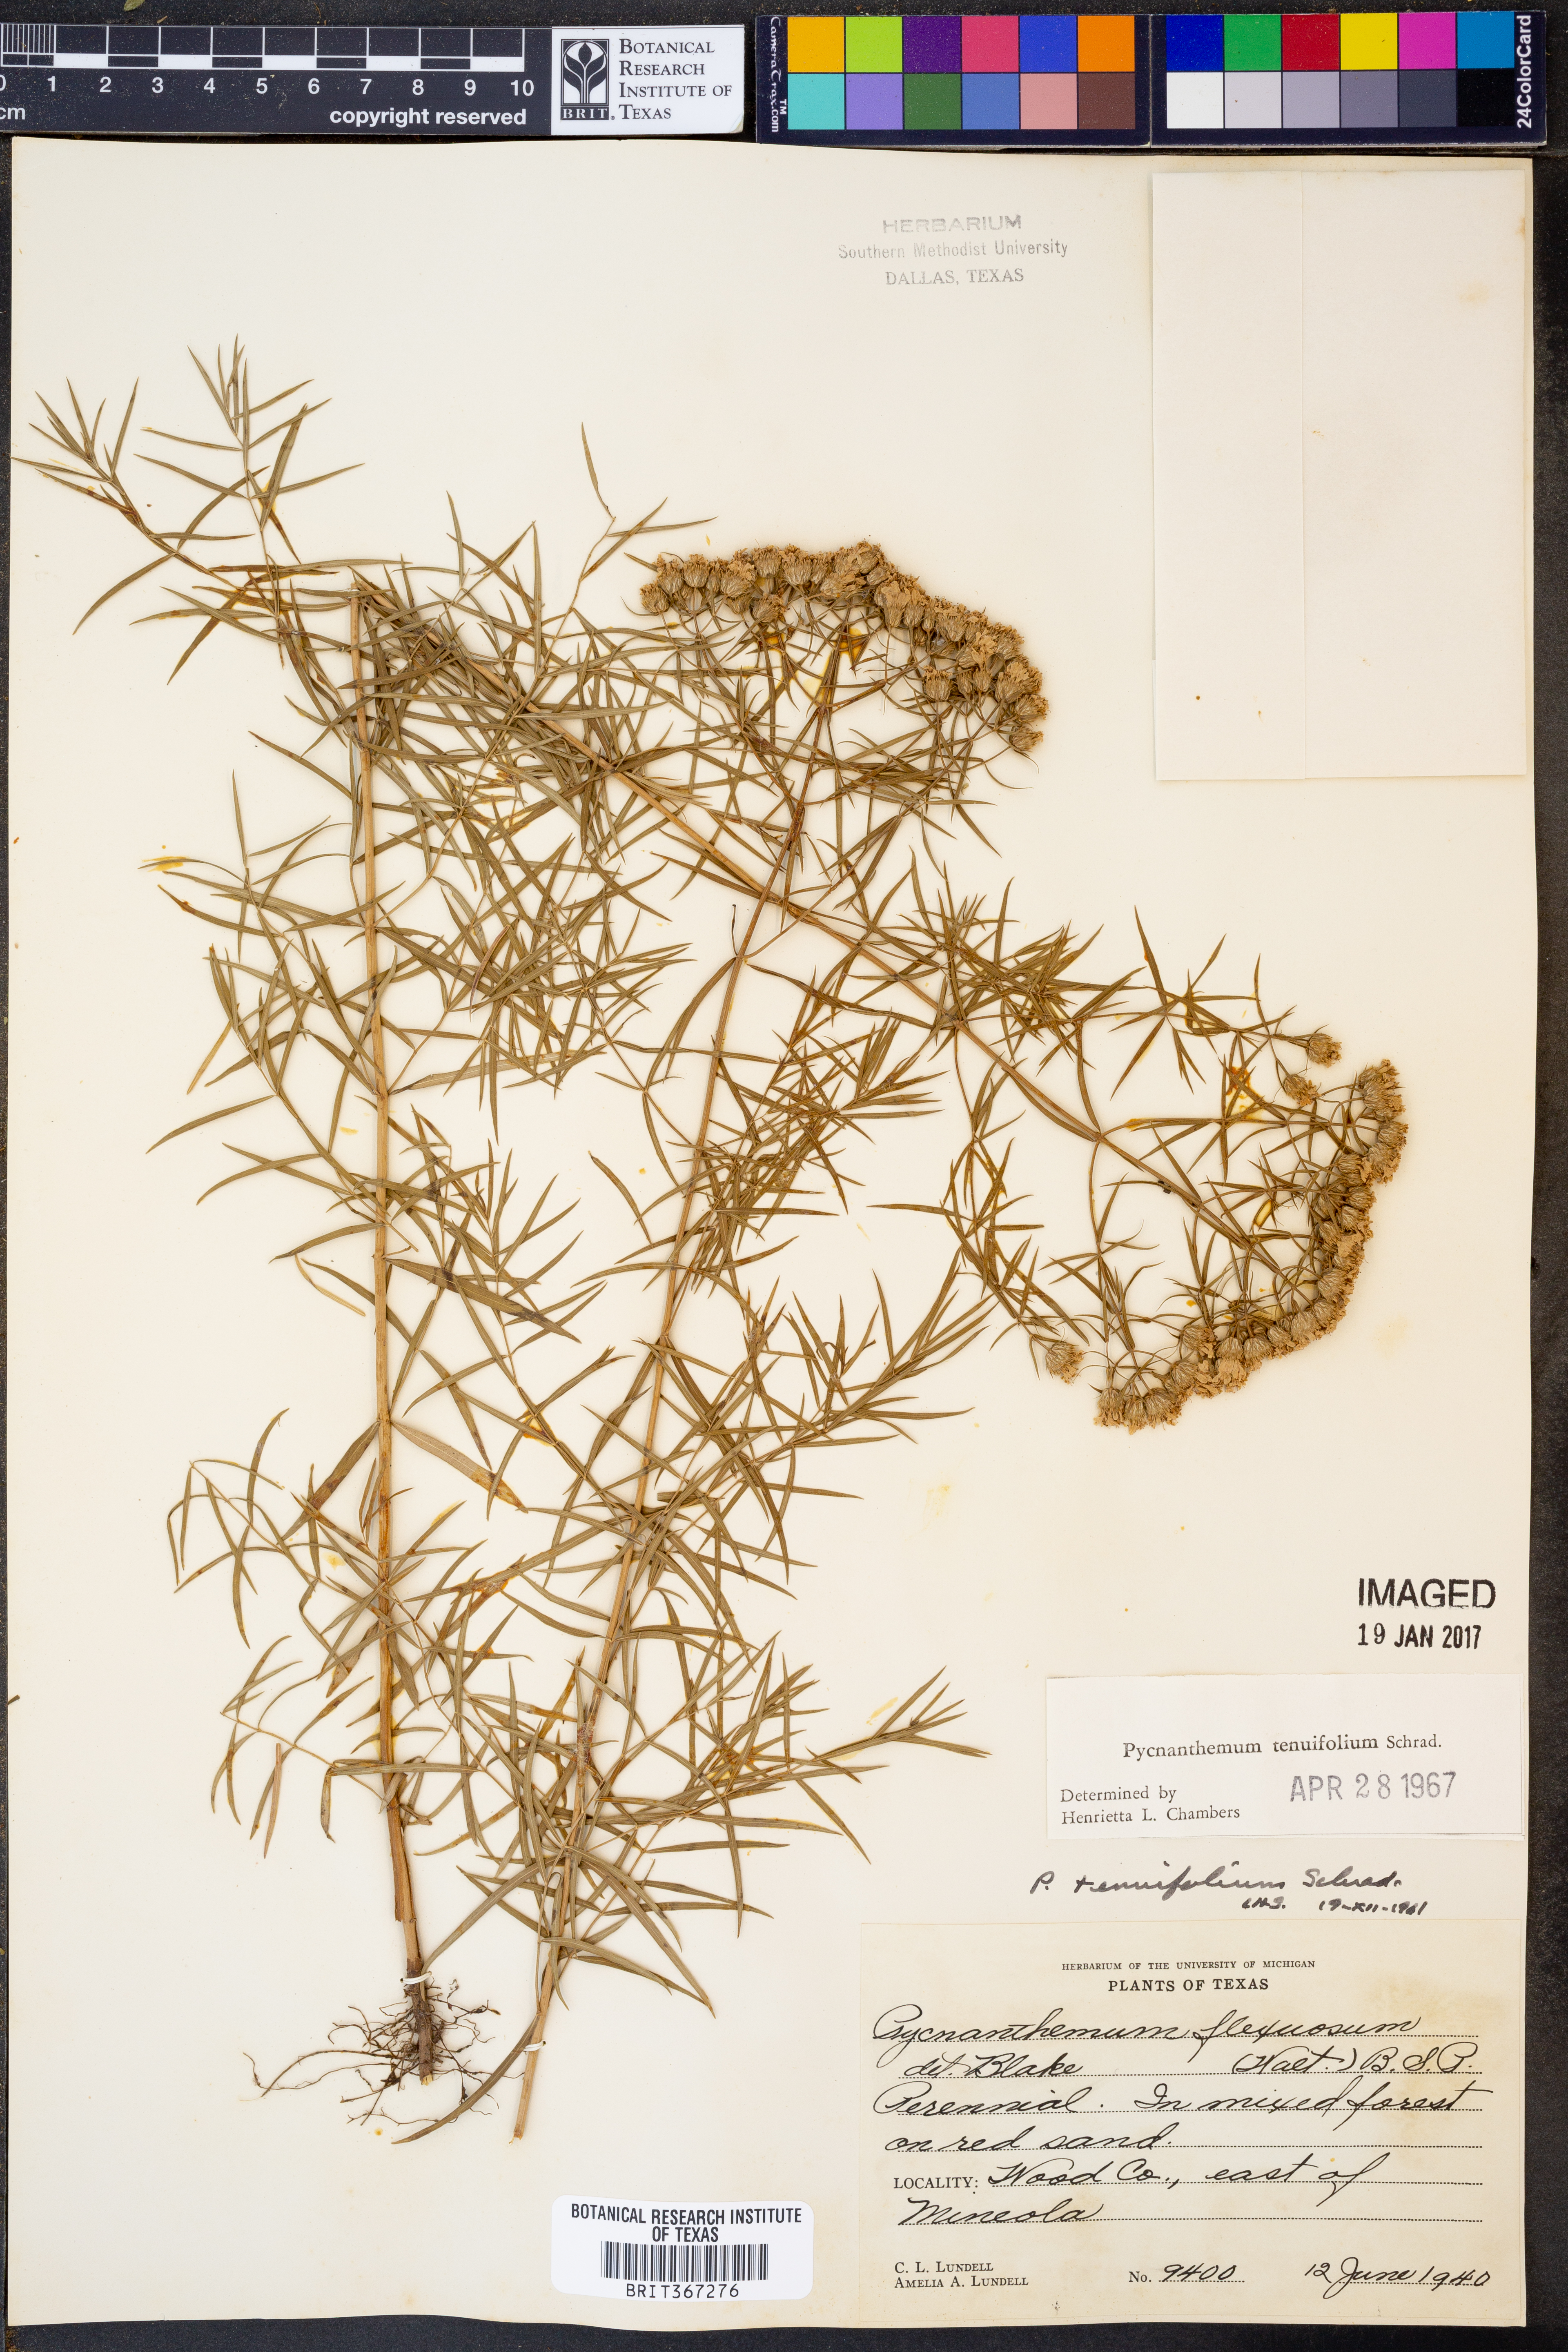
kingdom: Plantae
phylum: Tracheophyta
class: Magnoliopsida
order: Lamiales
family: Lamiaceae
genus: Pycnanthemum
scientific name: Pycnanthemum tenuifolium
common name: Narrow-leaf mountain-mint
